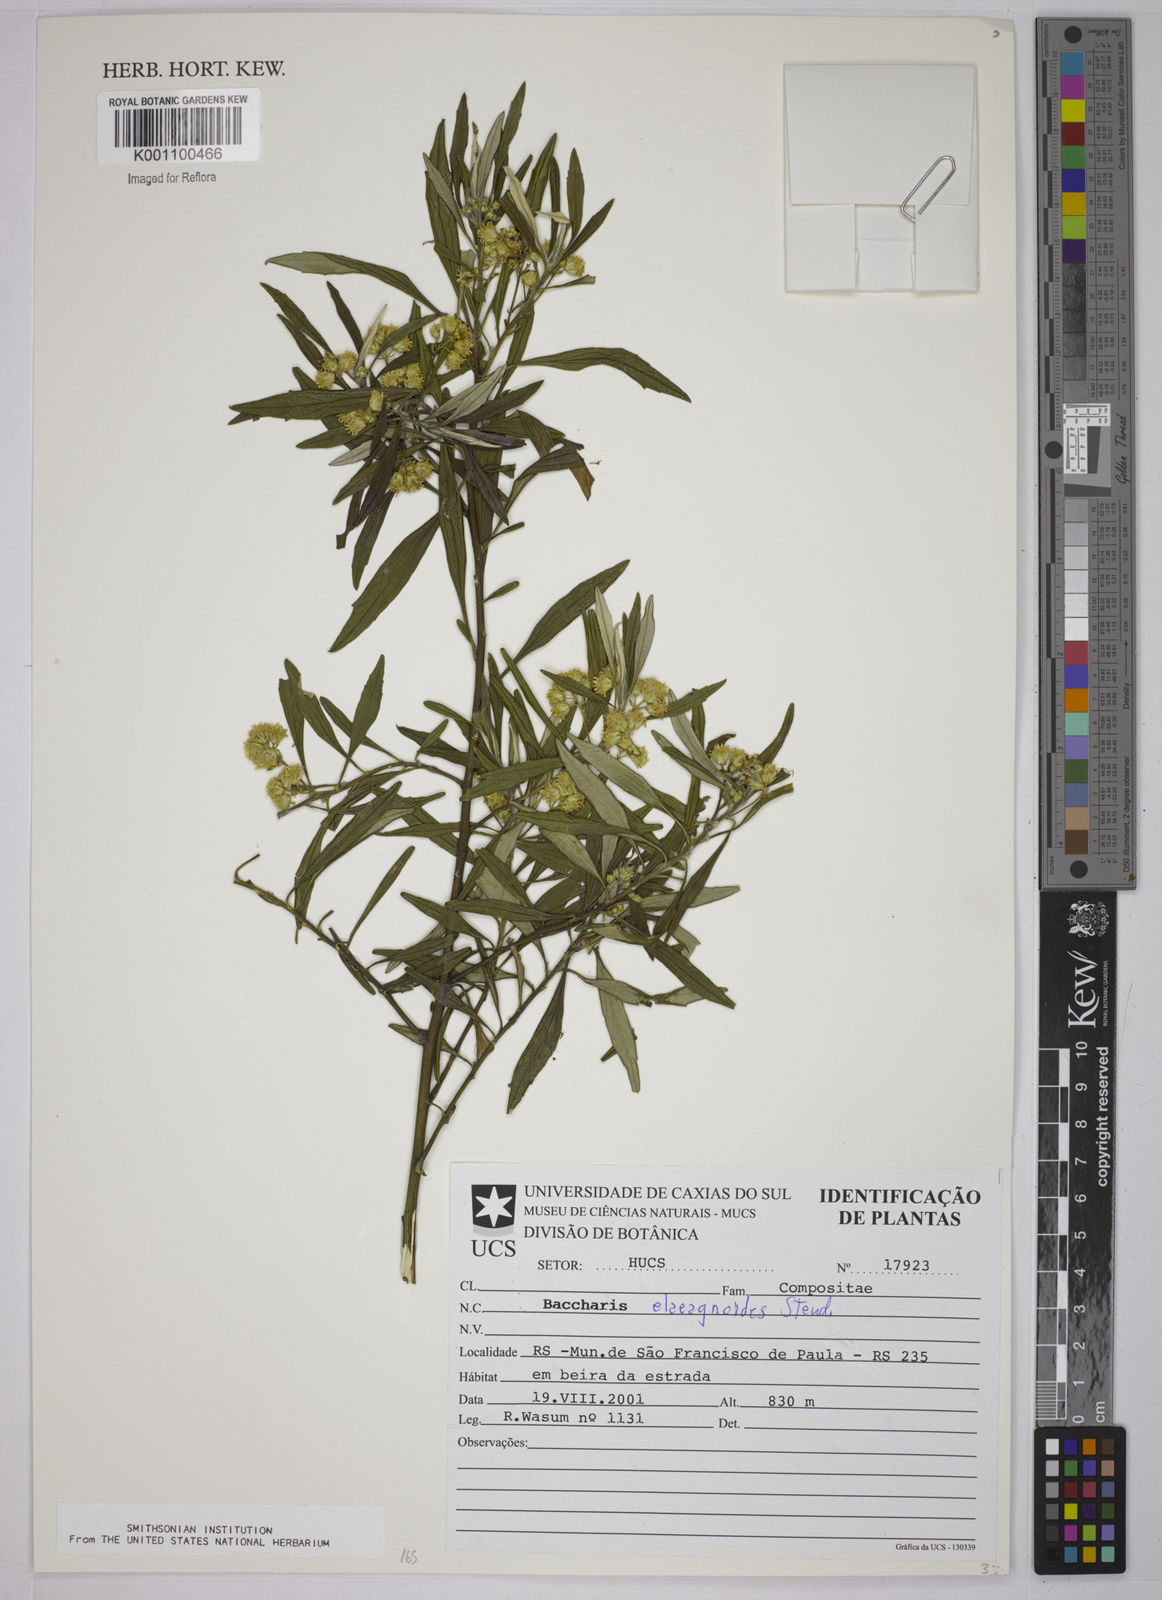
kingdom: Plantae
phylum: Tracheophyta
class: Magnoliopsida
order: Asterales
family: Asteraceae
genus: Baccharis
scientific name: Baccharis
